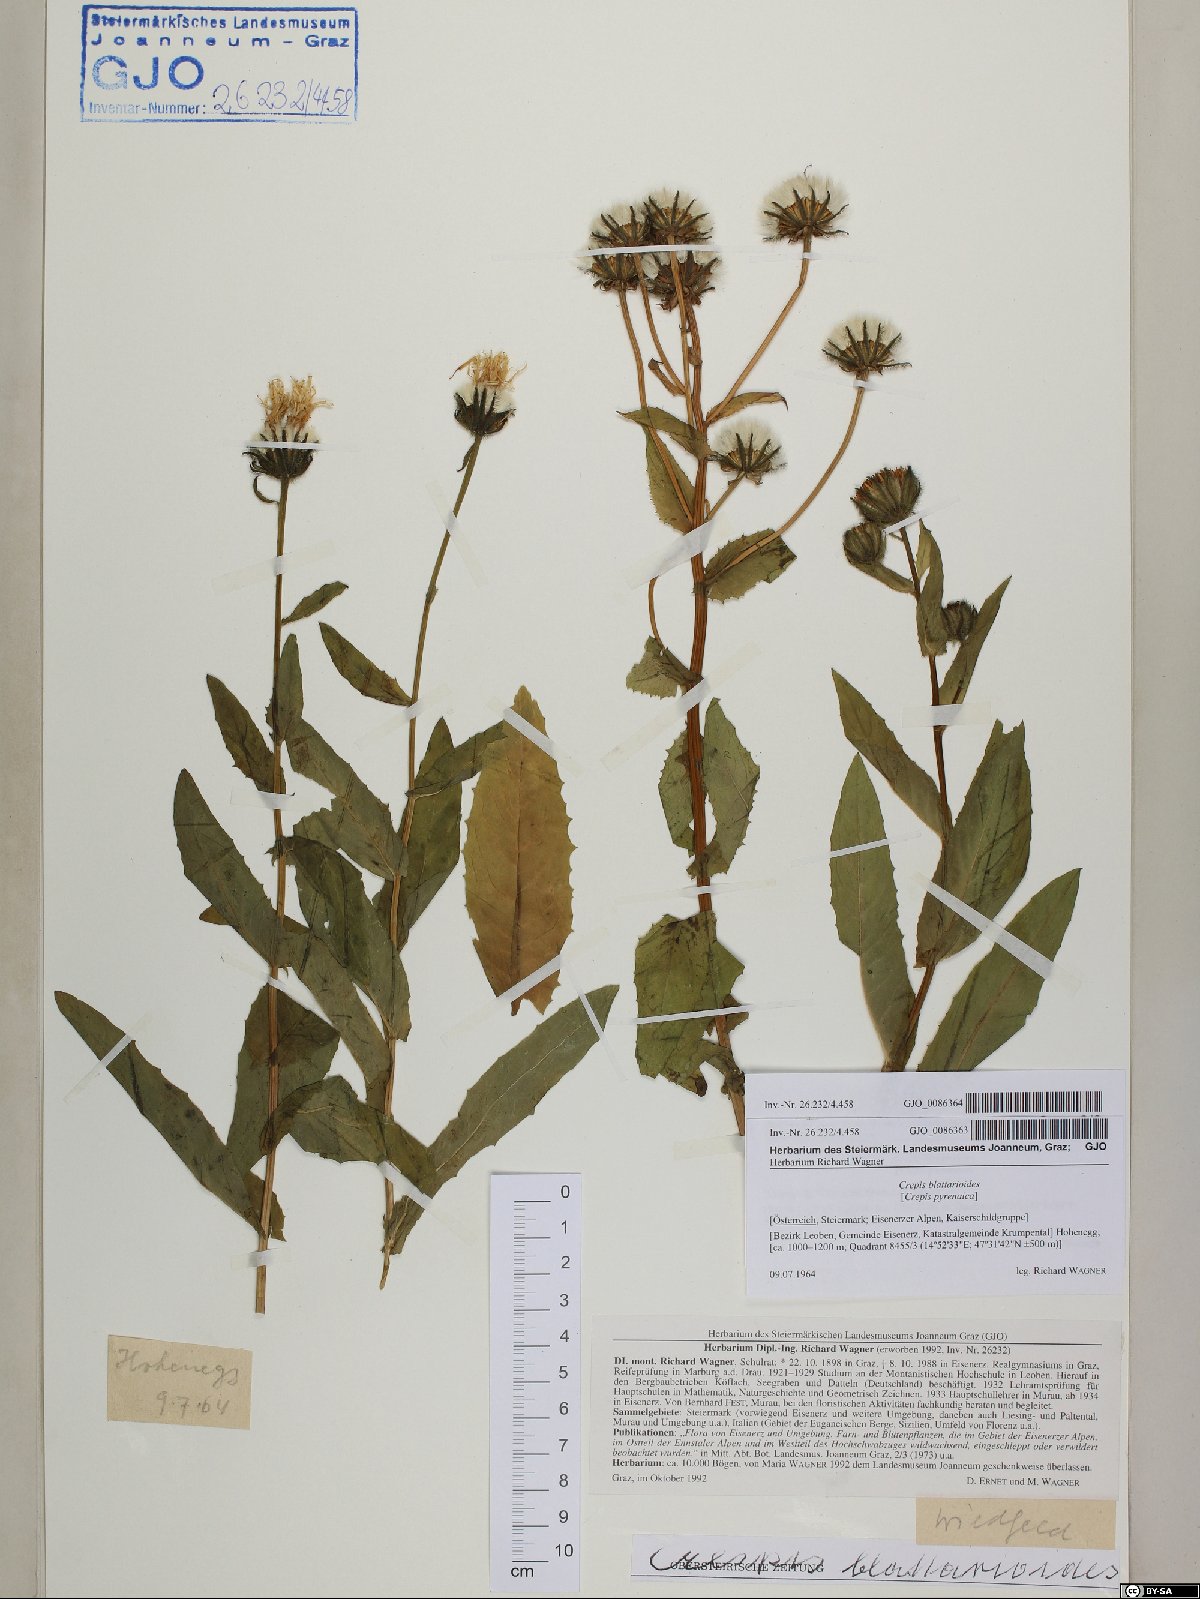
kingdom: Plantae
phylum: Tracheophyta
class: Magnoliopsida
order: Asterales
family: Asteraceae
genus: Crepis
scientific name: Crepis blattarioides
